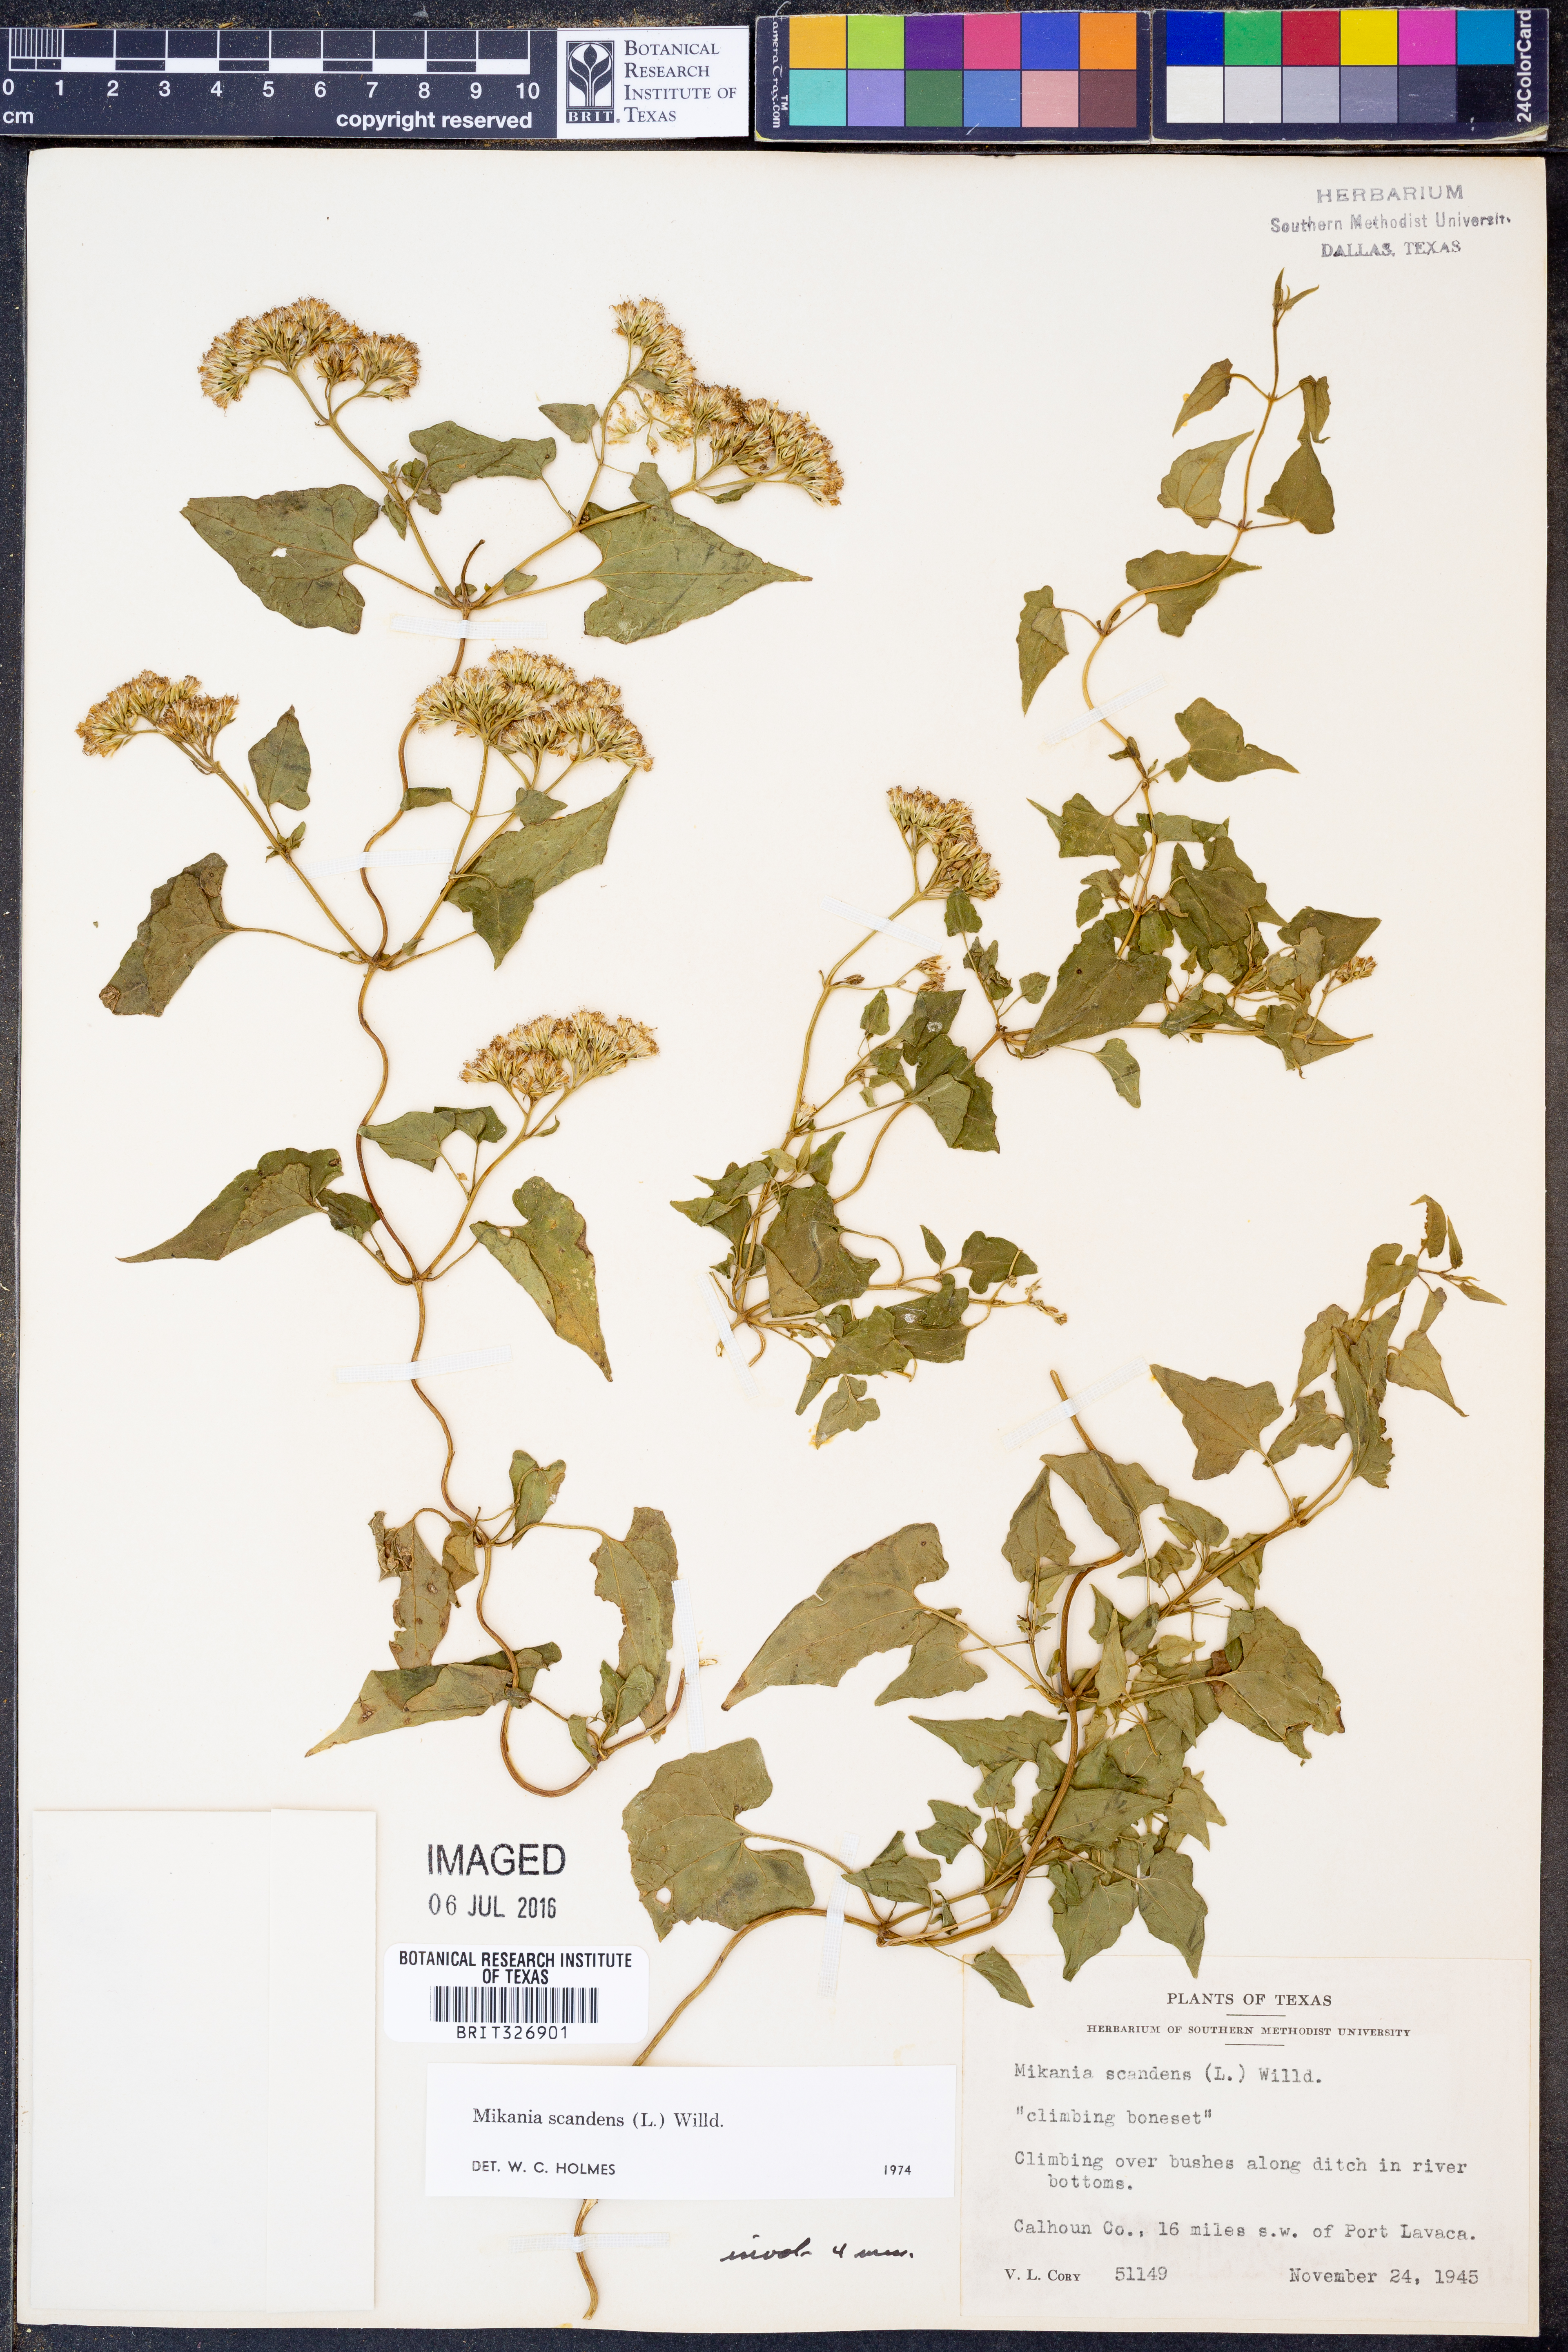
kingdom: Plantae
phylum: Tracheophyta
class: Magnoliopsida
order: Asterales
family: Asteraceae
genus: Mikania
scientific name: Mikania scandens
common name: Climbing hempvine
